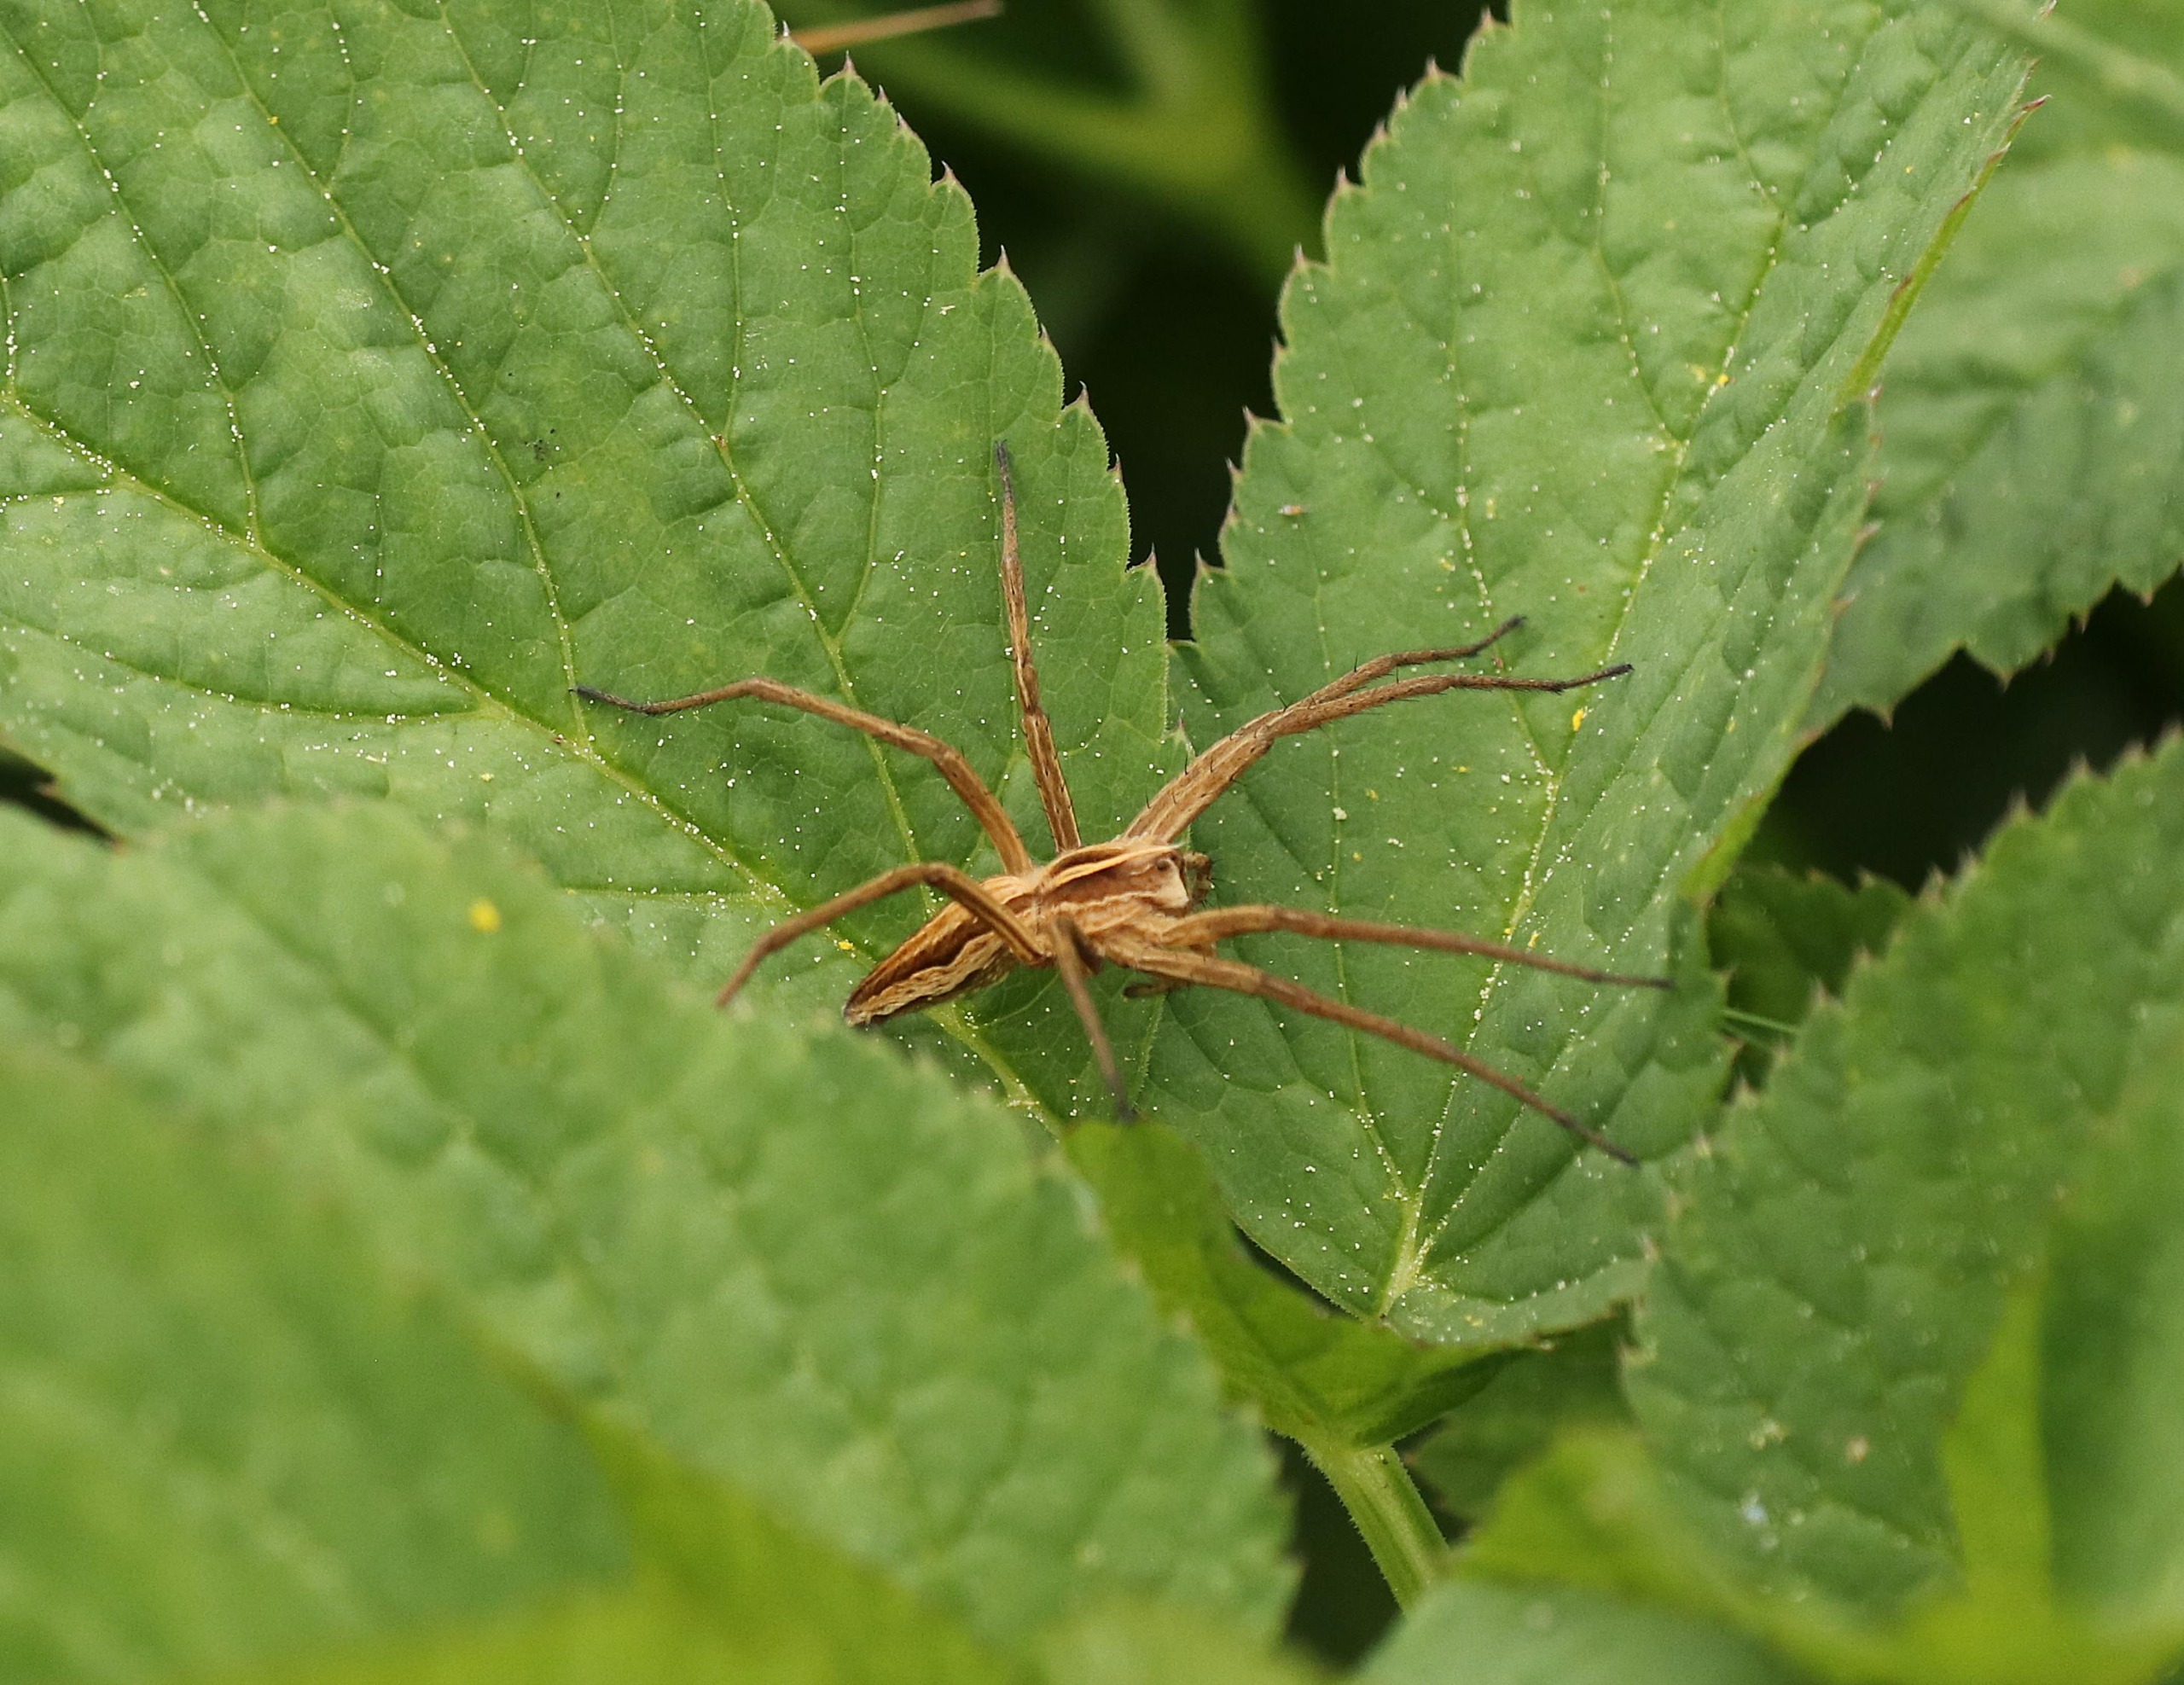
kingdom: Animalia
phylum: Arthropoda
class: Arachnida
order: Araneae
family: Pisauridae
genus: Pisaura
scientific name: Pisaura mirabilis
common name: Almindelig rovedderkop
